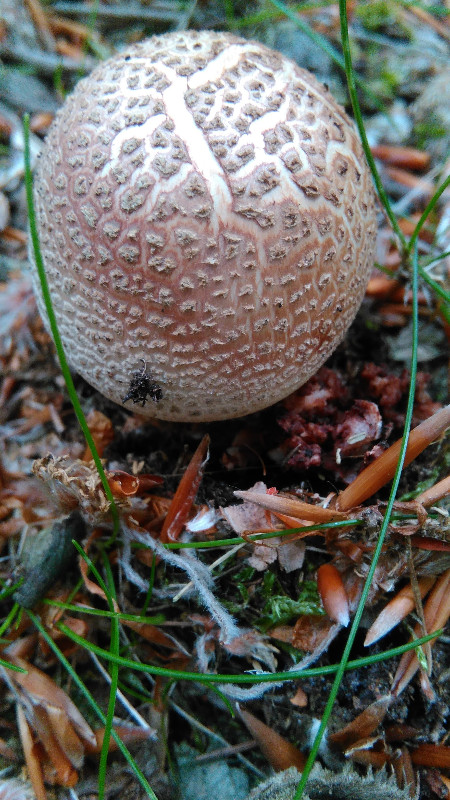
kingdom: Fungi
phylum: Basidiomycota
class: Agaricomycetes
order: Agaricales
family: Amanitaceae
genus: Amanita
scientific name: Amanita rubescens
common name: rødmende fluesvamp
